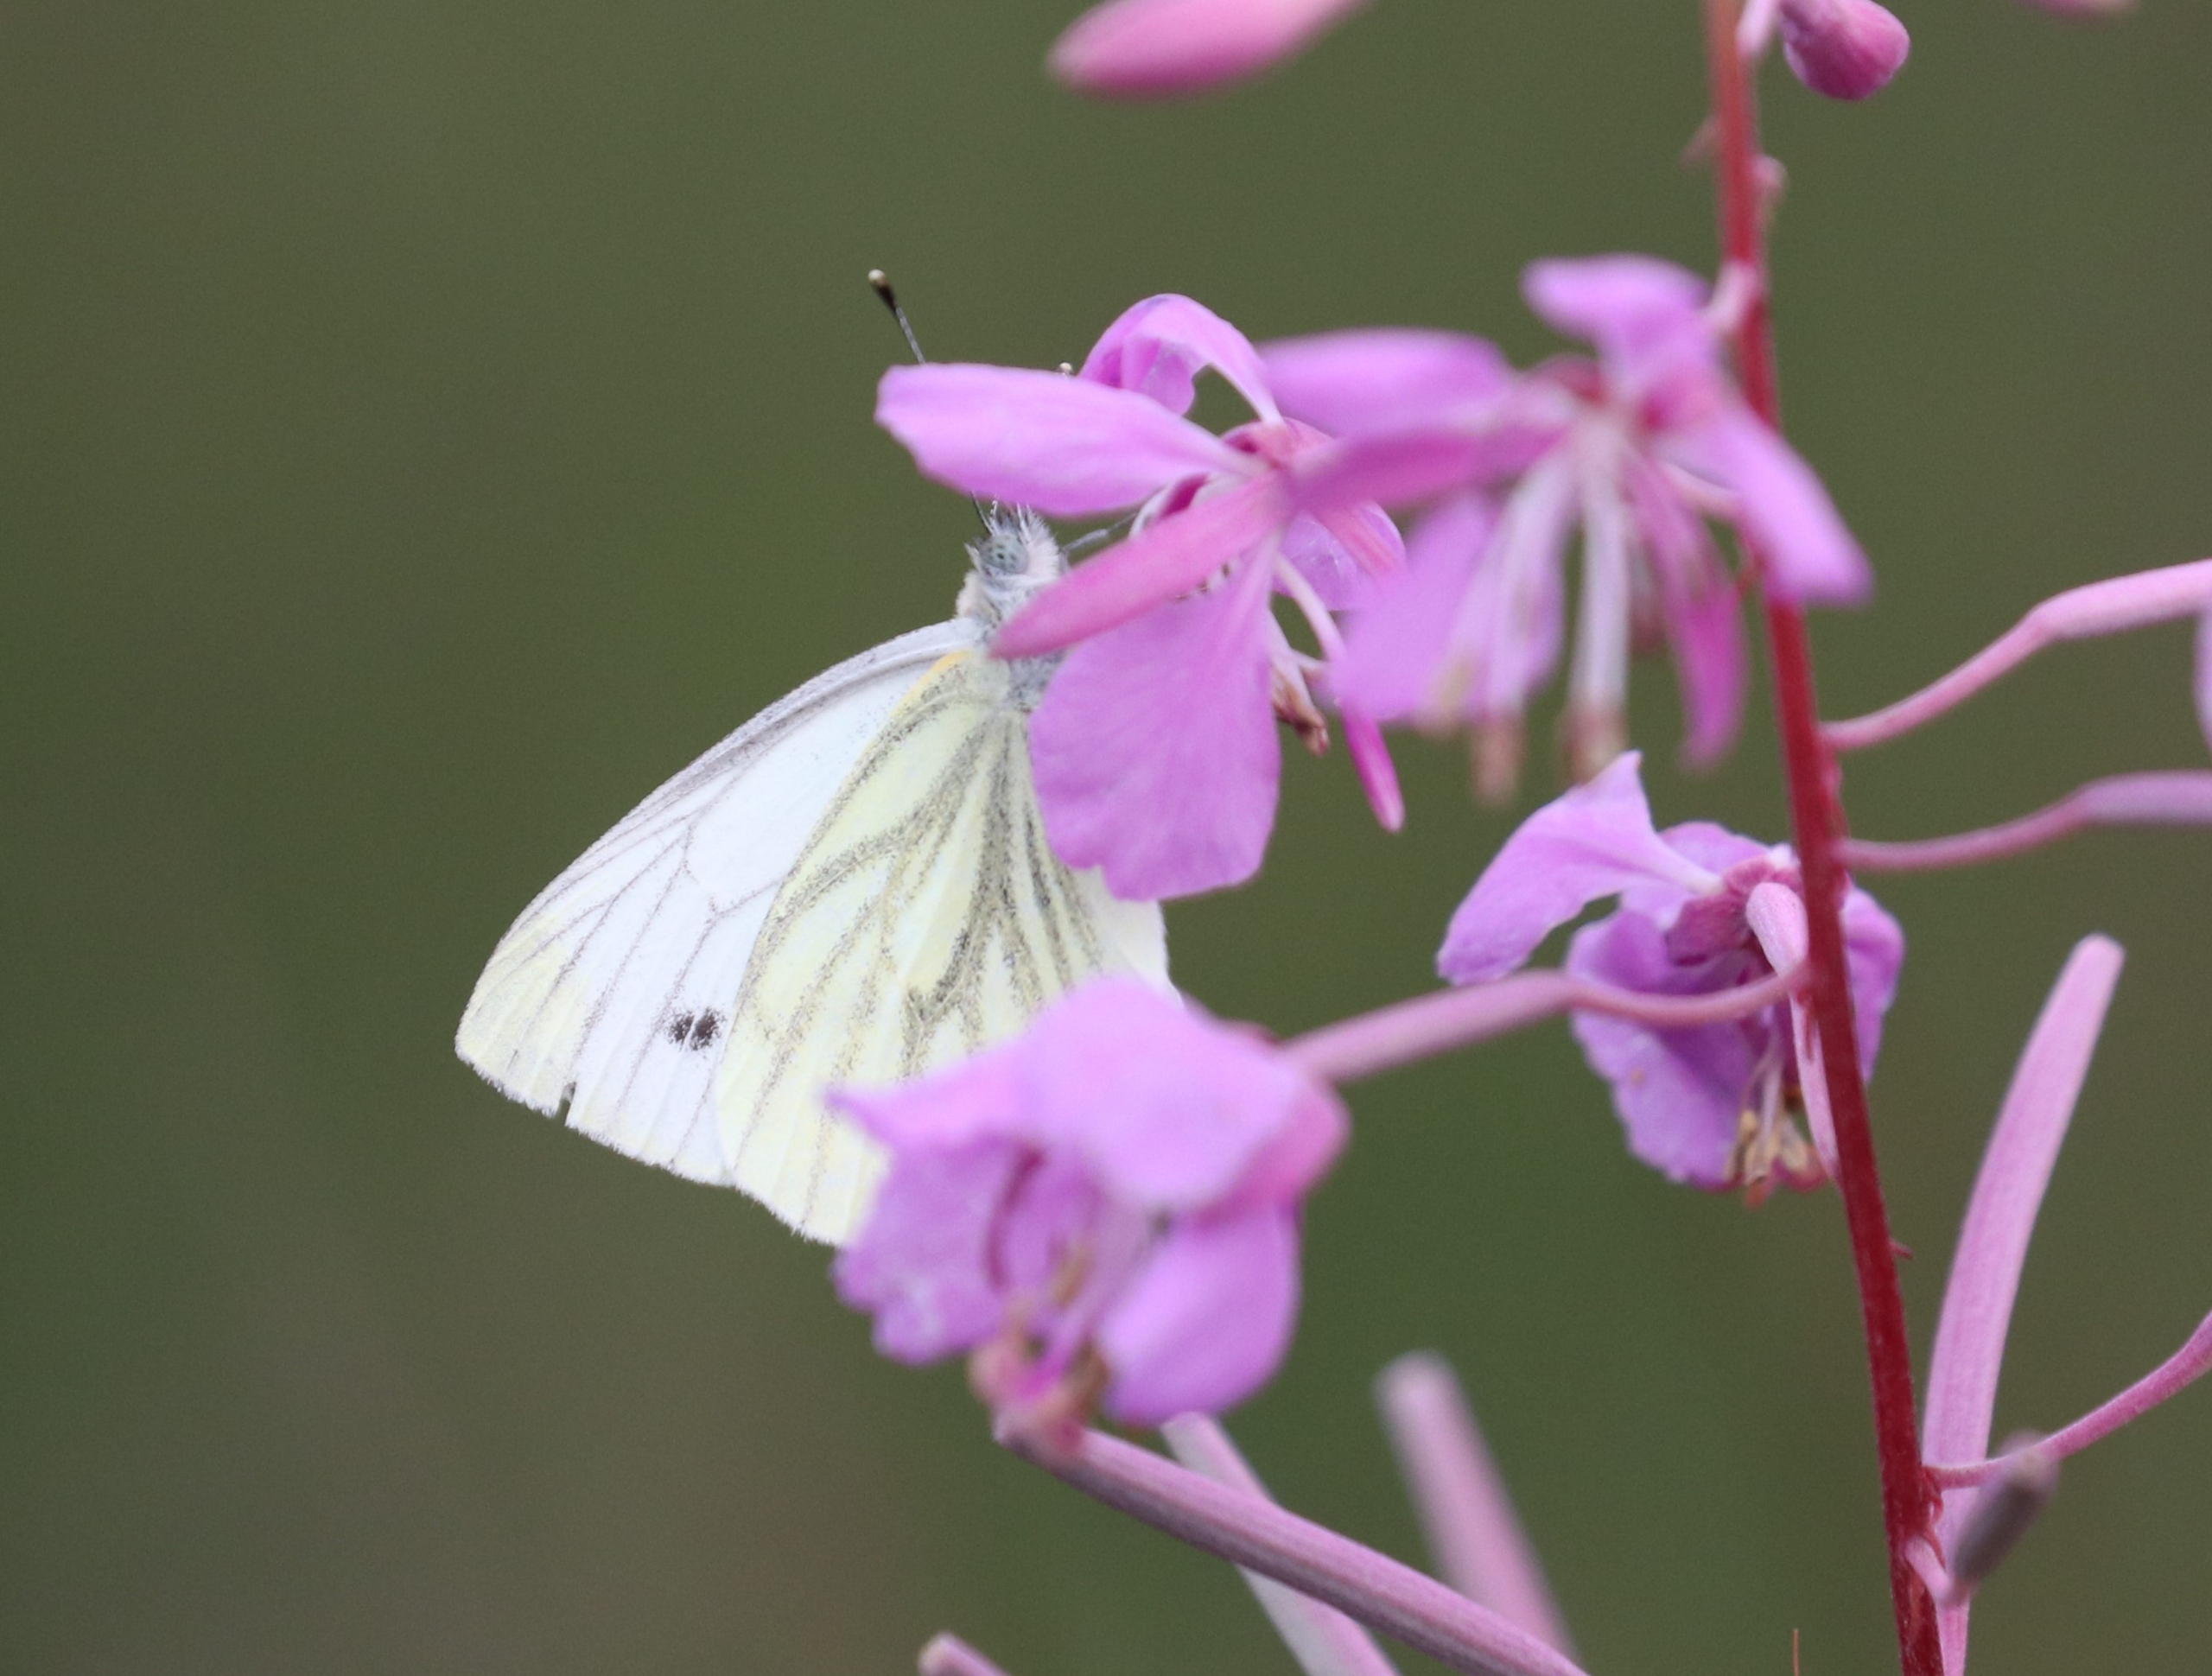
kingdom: Animalia
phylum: Arthropoda
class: Insecta
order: Lepidoptera
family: Pieridae
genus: Pieris
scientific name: Pieris napi
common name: Grønåret kålsommerfugl
